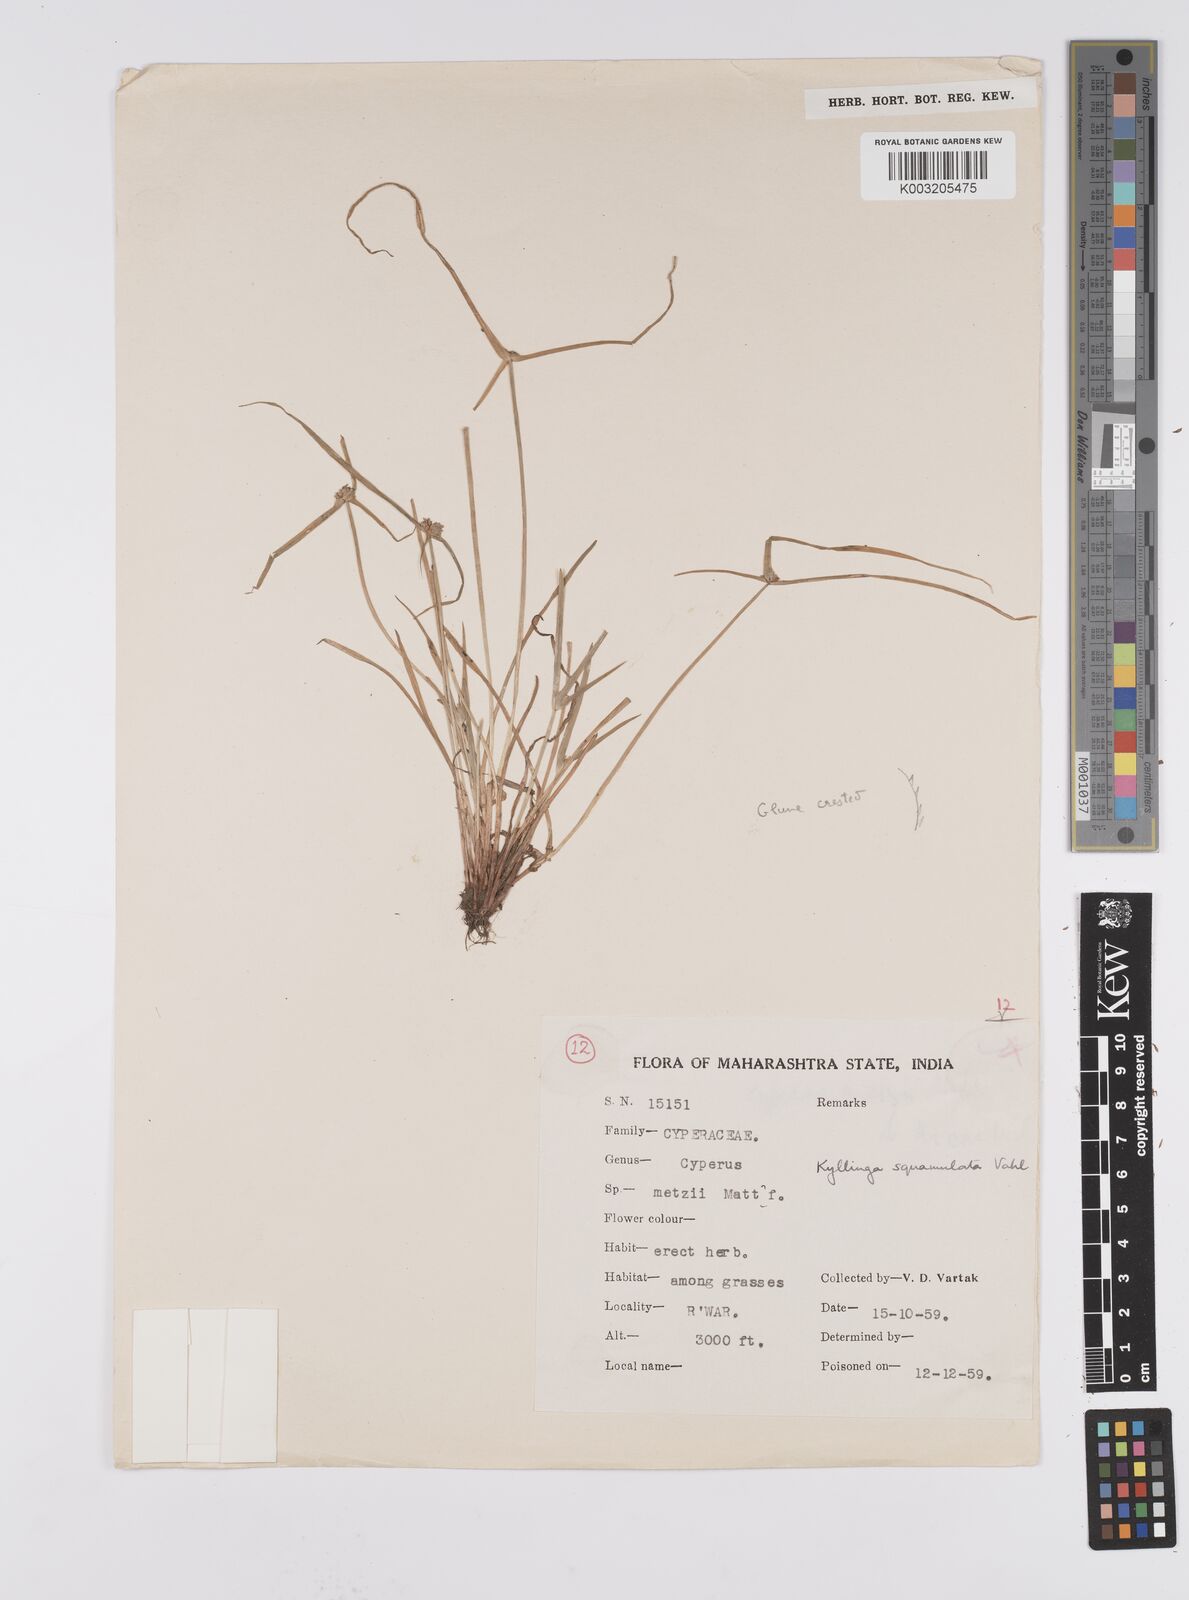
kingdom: Plantae
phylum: Tracheophyta
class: Liliopsida
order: Poales
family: Cyperaceae
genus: Cyperus
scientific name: Cyperus
